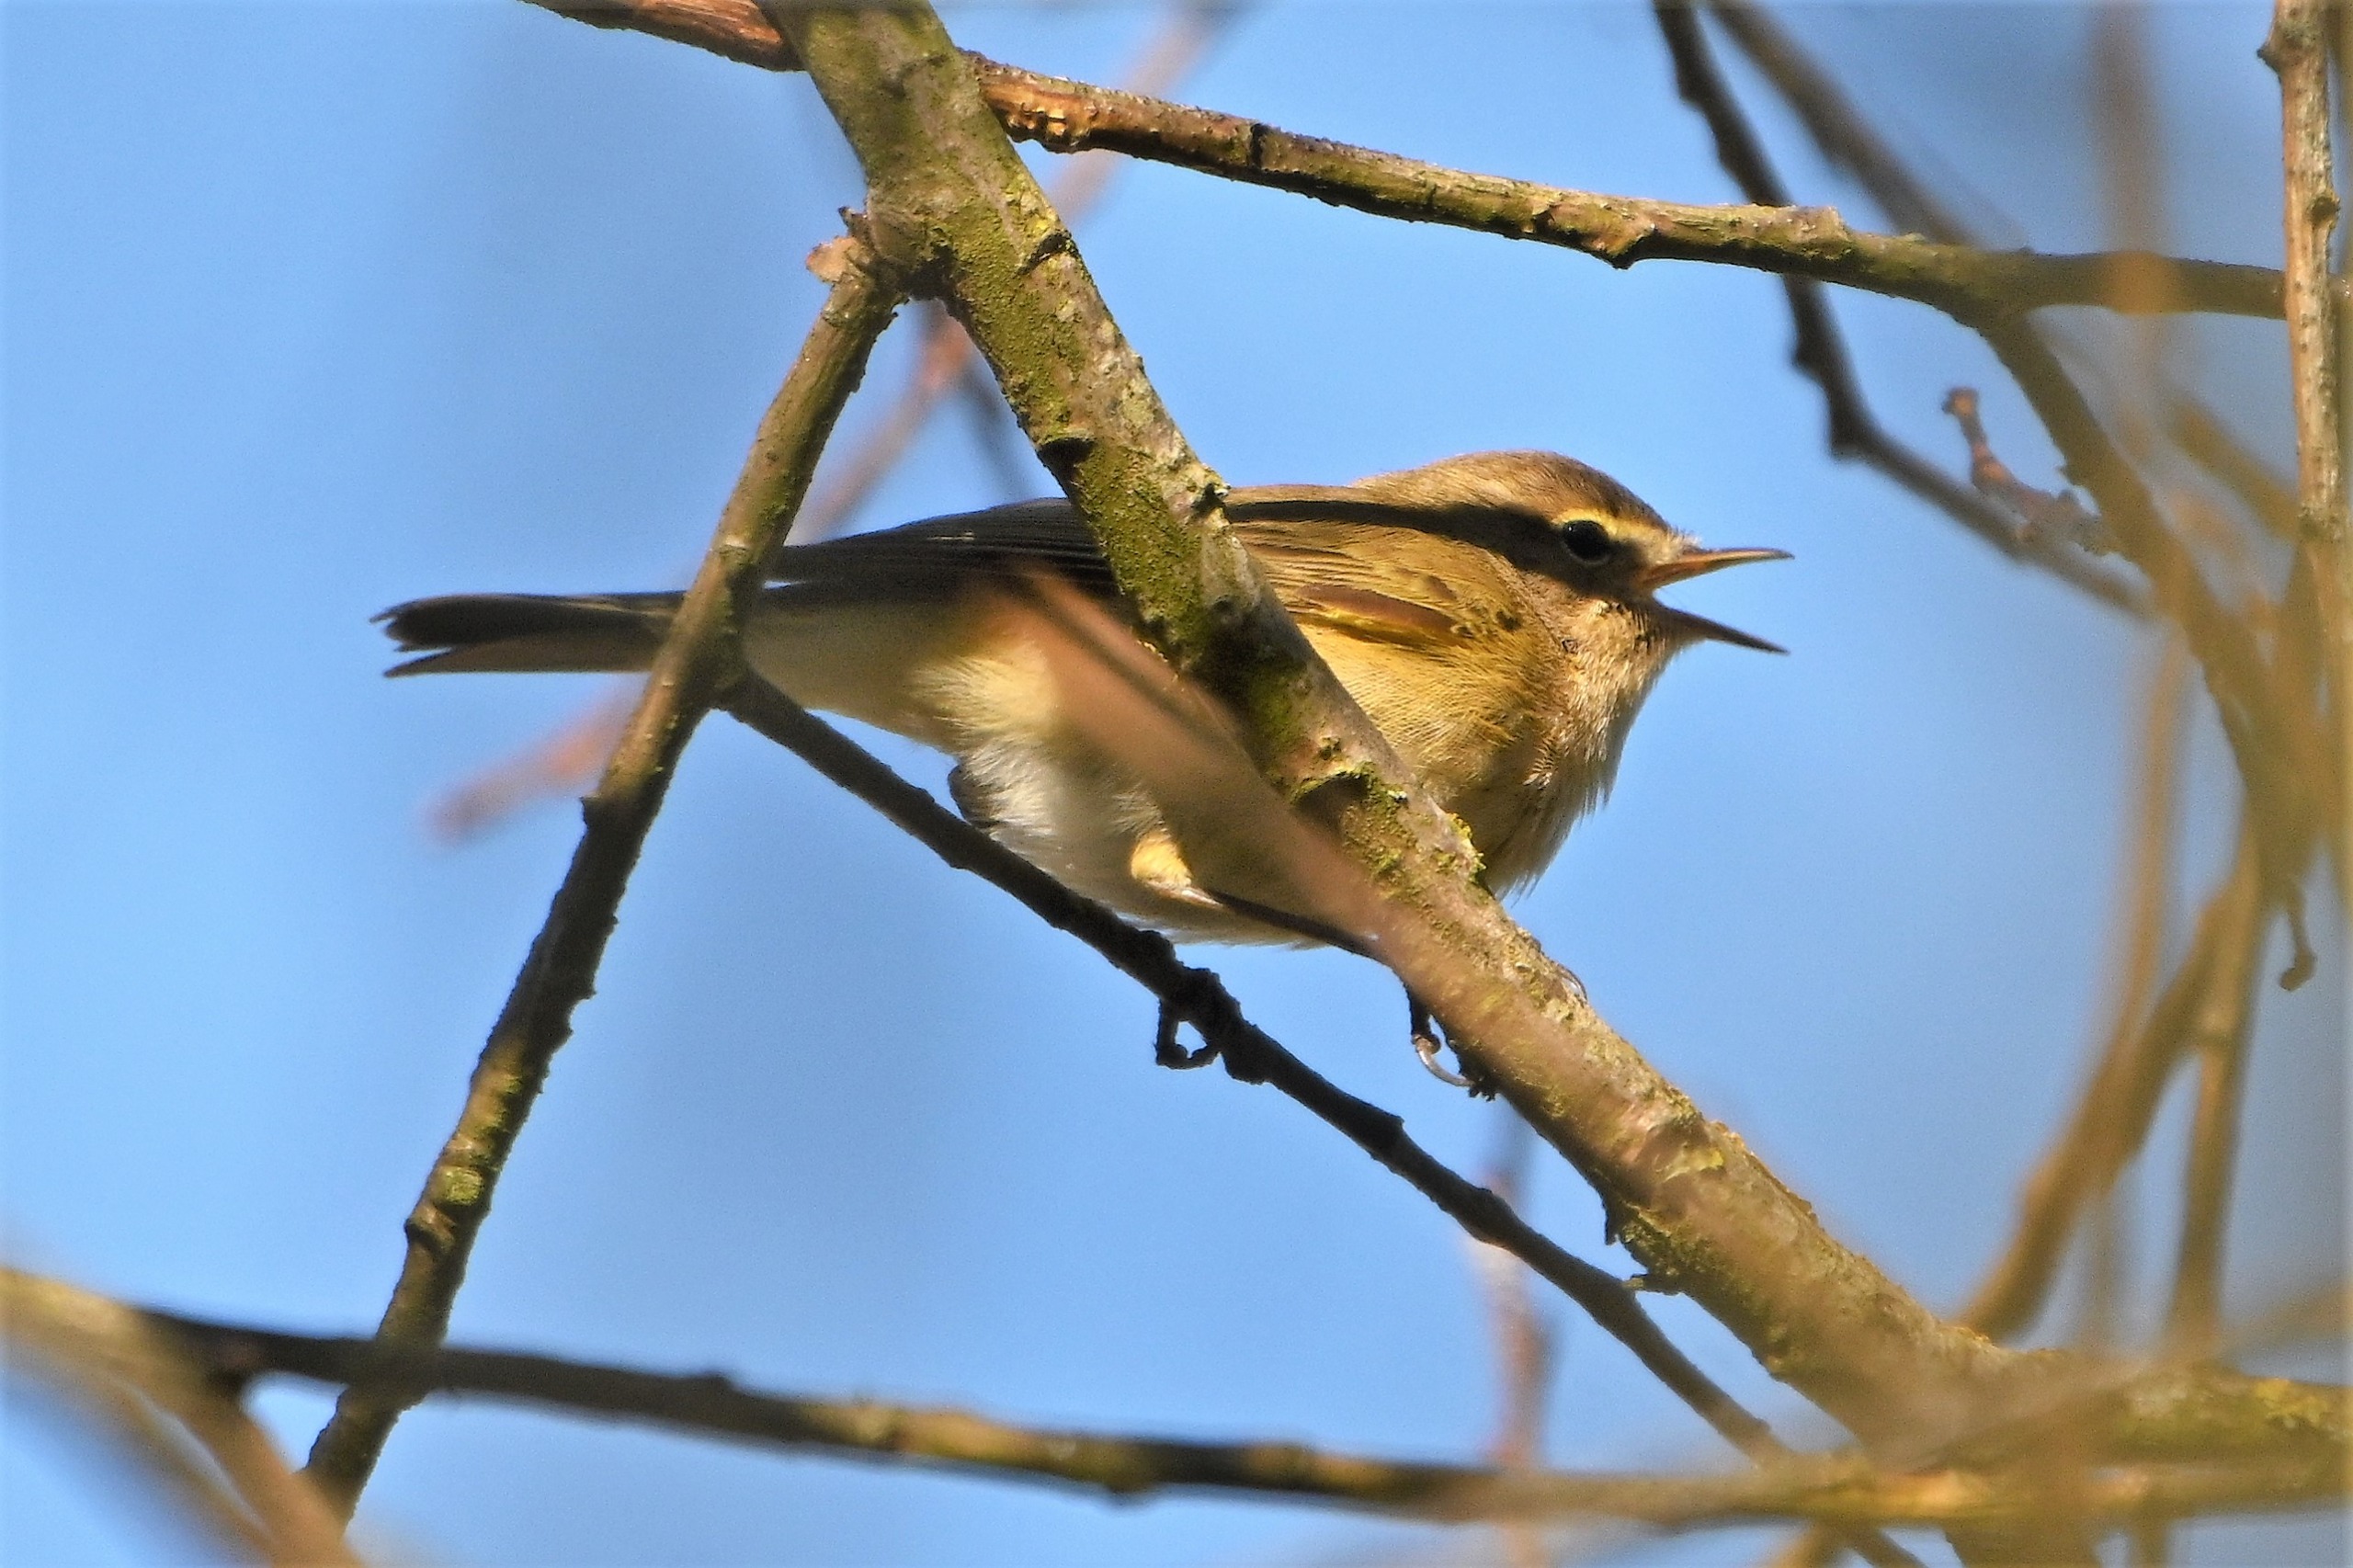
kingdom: Animalia
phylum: Chordata
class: Aves
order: Passeriformes
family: Phylloscopidae
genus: Phylloscopus
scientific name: Phylloscopus collybita
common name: Gransanger
